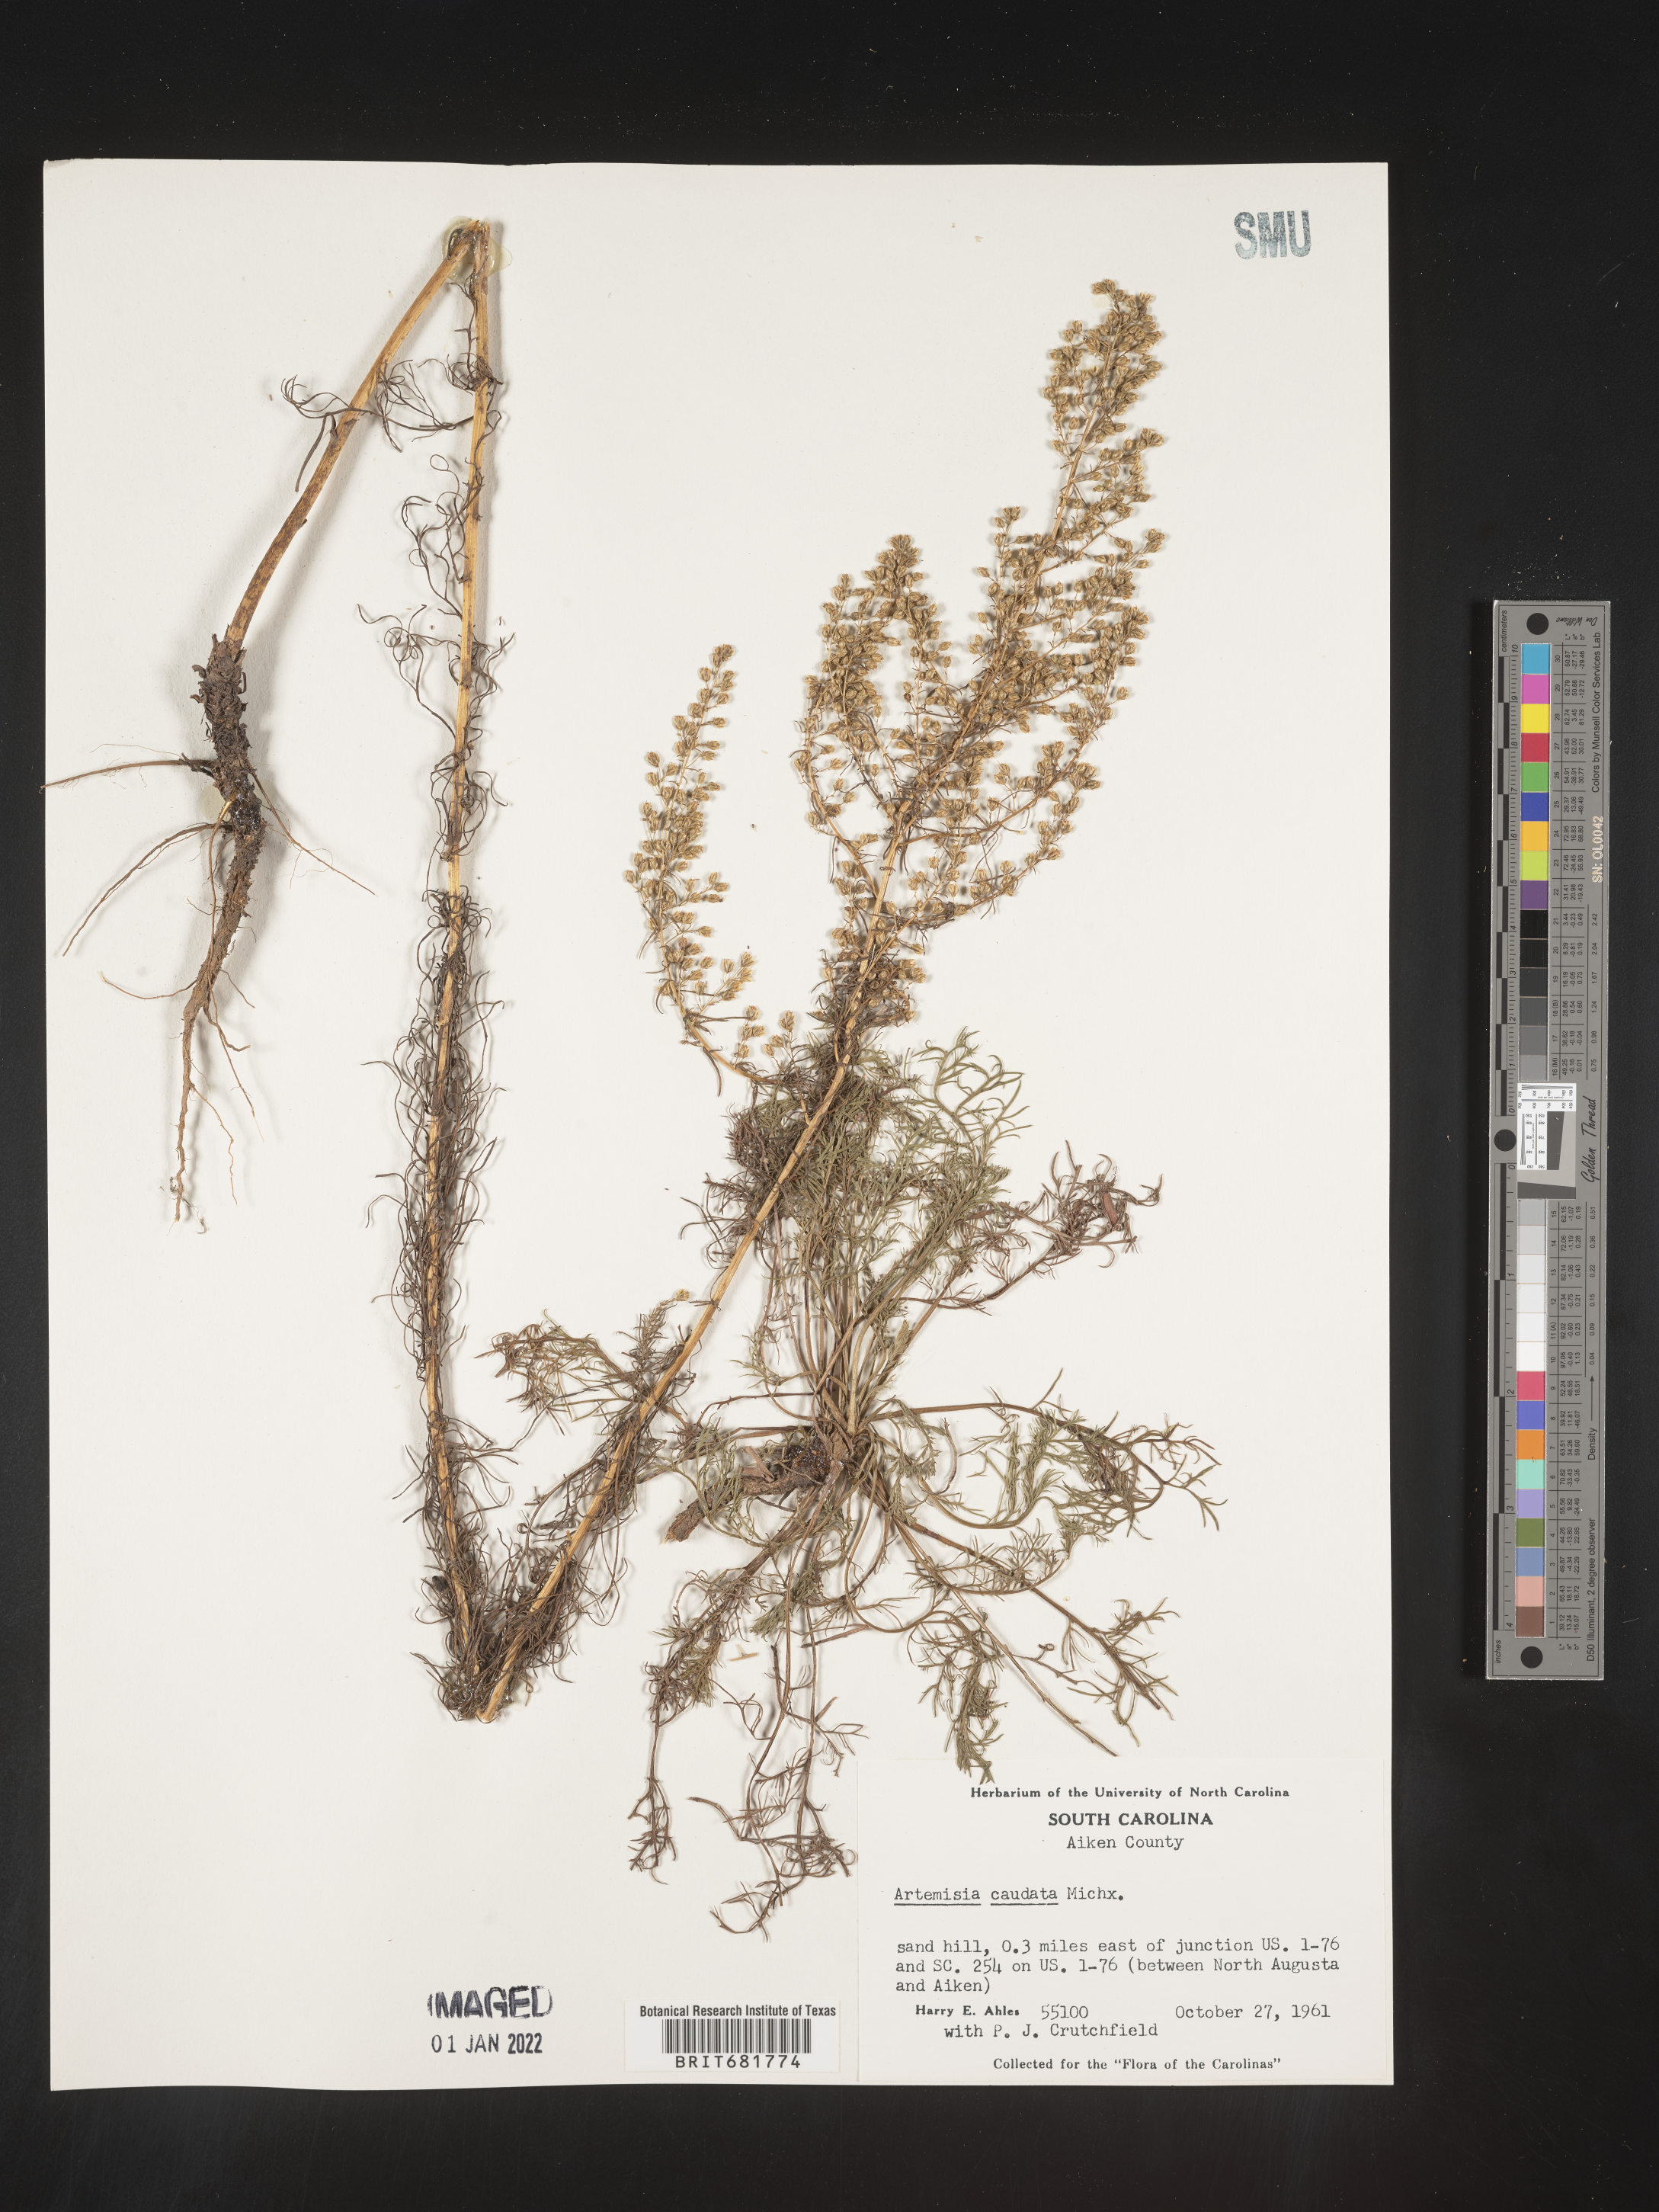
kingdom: Plantae
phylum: Tracheophyta
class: Magnoliopsida
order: Asterales
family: Asteraceae
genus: Artemisia
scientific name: Artemisia campestris
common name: Field wormwood
